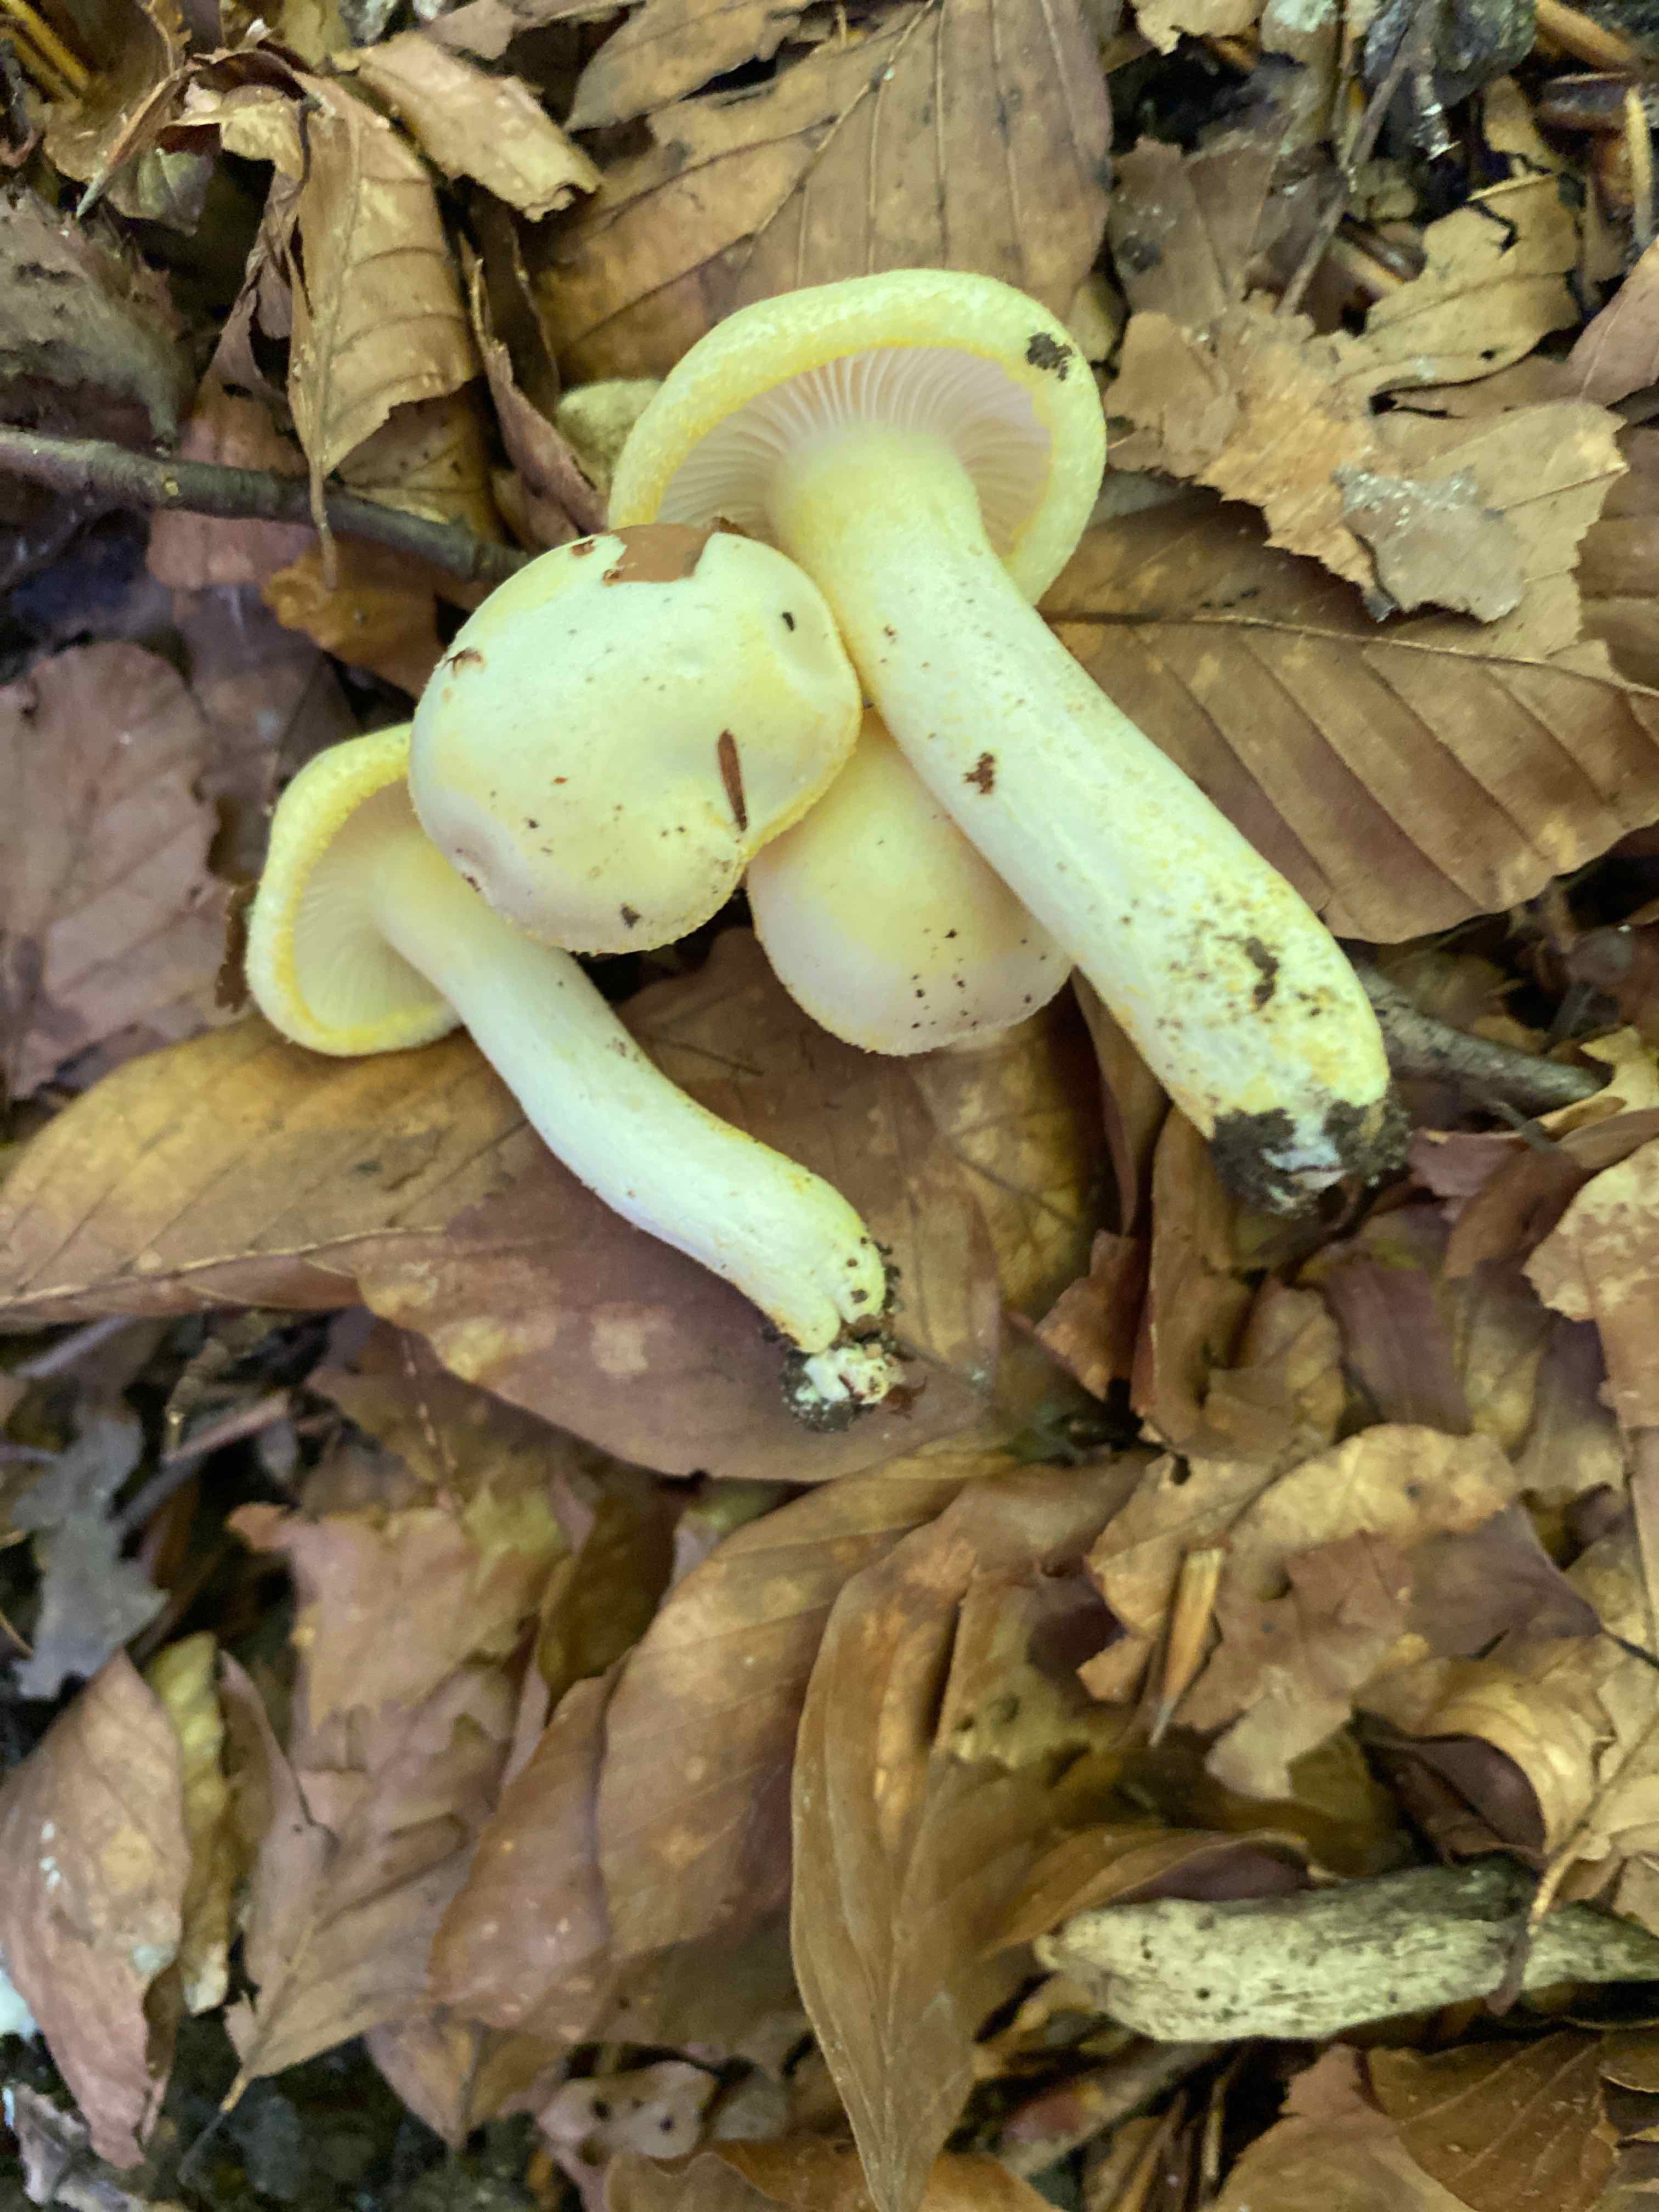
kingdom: Fungi
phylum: Basidiomycota
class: Agaricomycetes
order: Agaricales
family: Hygrophoraceae
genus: Hygrophorus
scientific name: Hygrophorus chrysodon
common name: gulfnugget sneglehat
